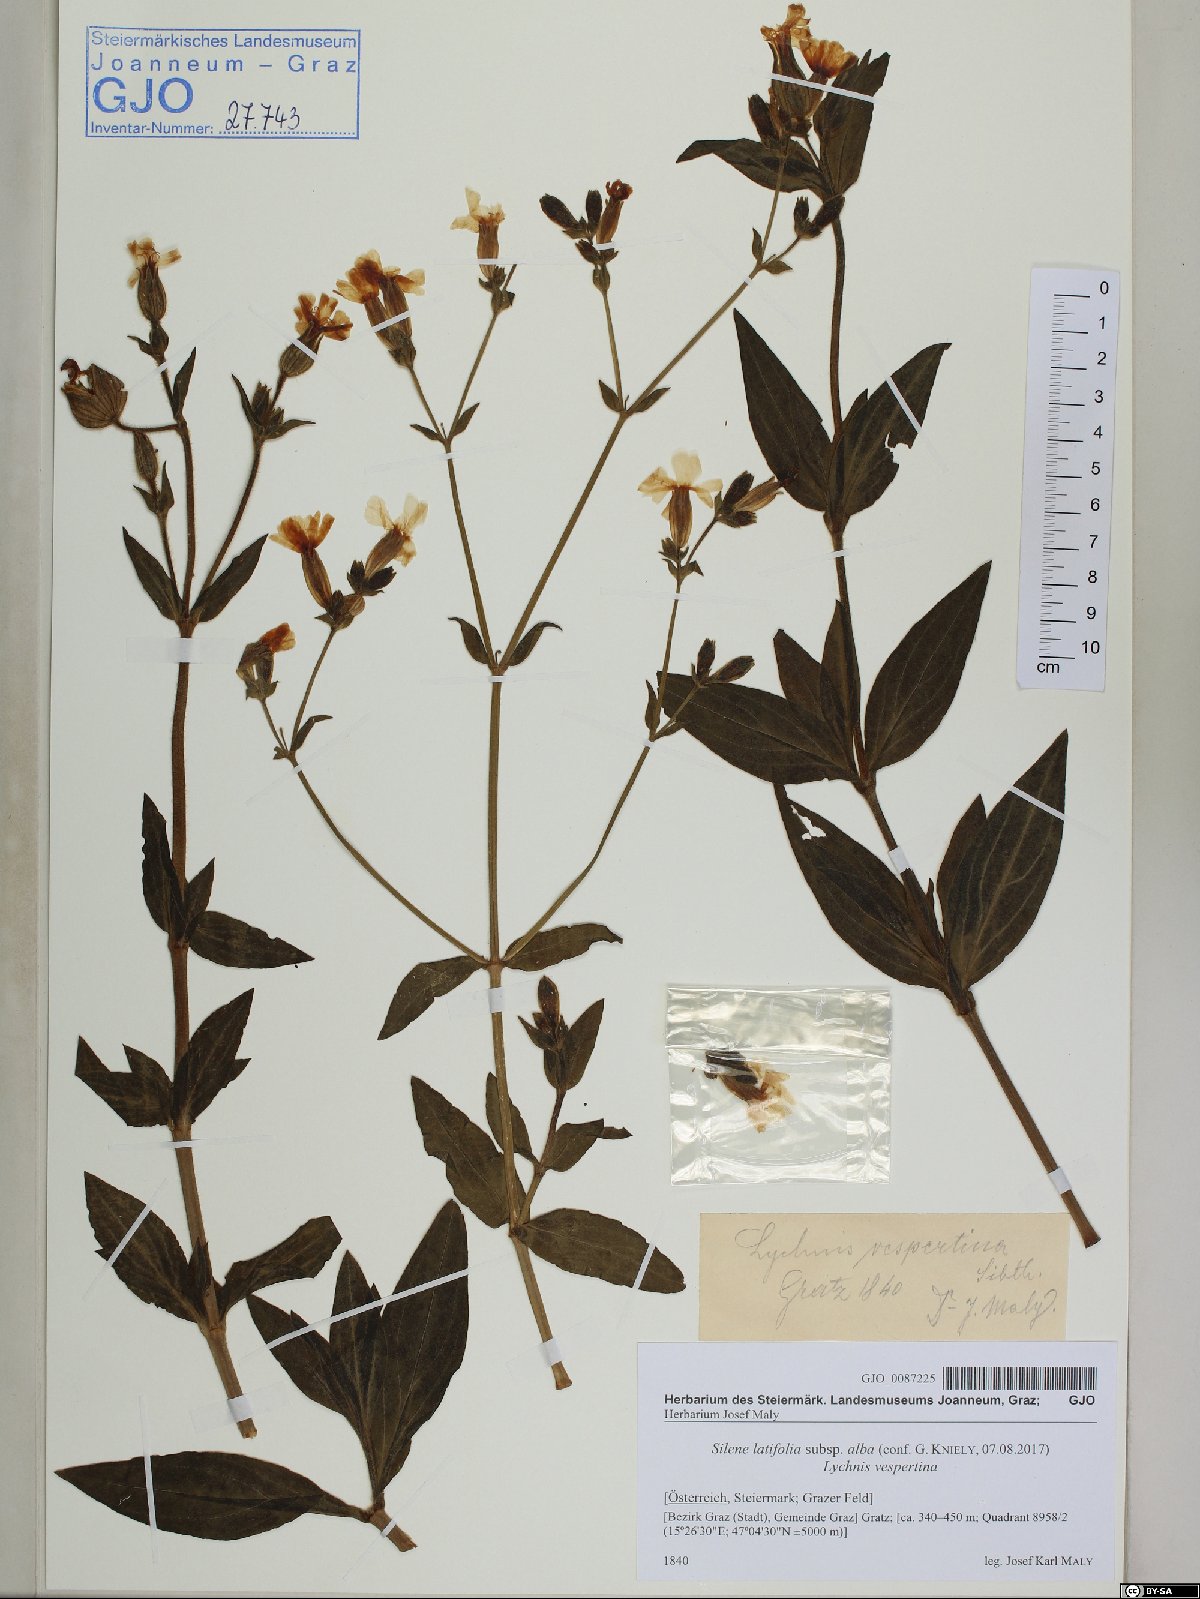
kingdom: Plantae
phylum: Tracheophyta
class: Magnoliopsida
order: Caryophyllales
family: Caryophyllaceae
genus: Silene
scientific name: Silene latifolia
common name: White campion
